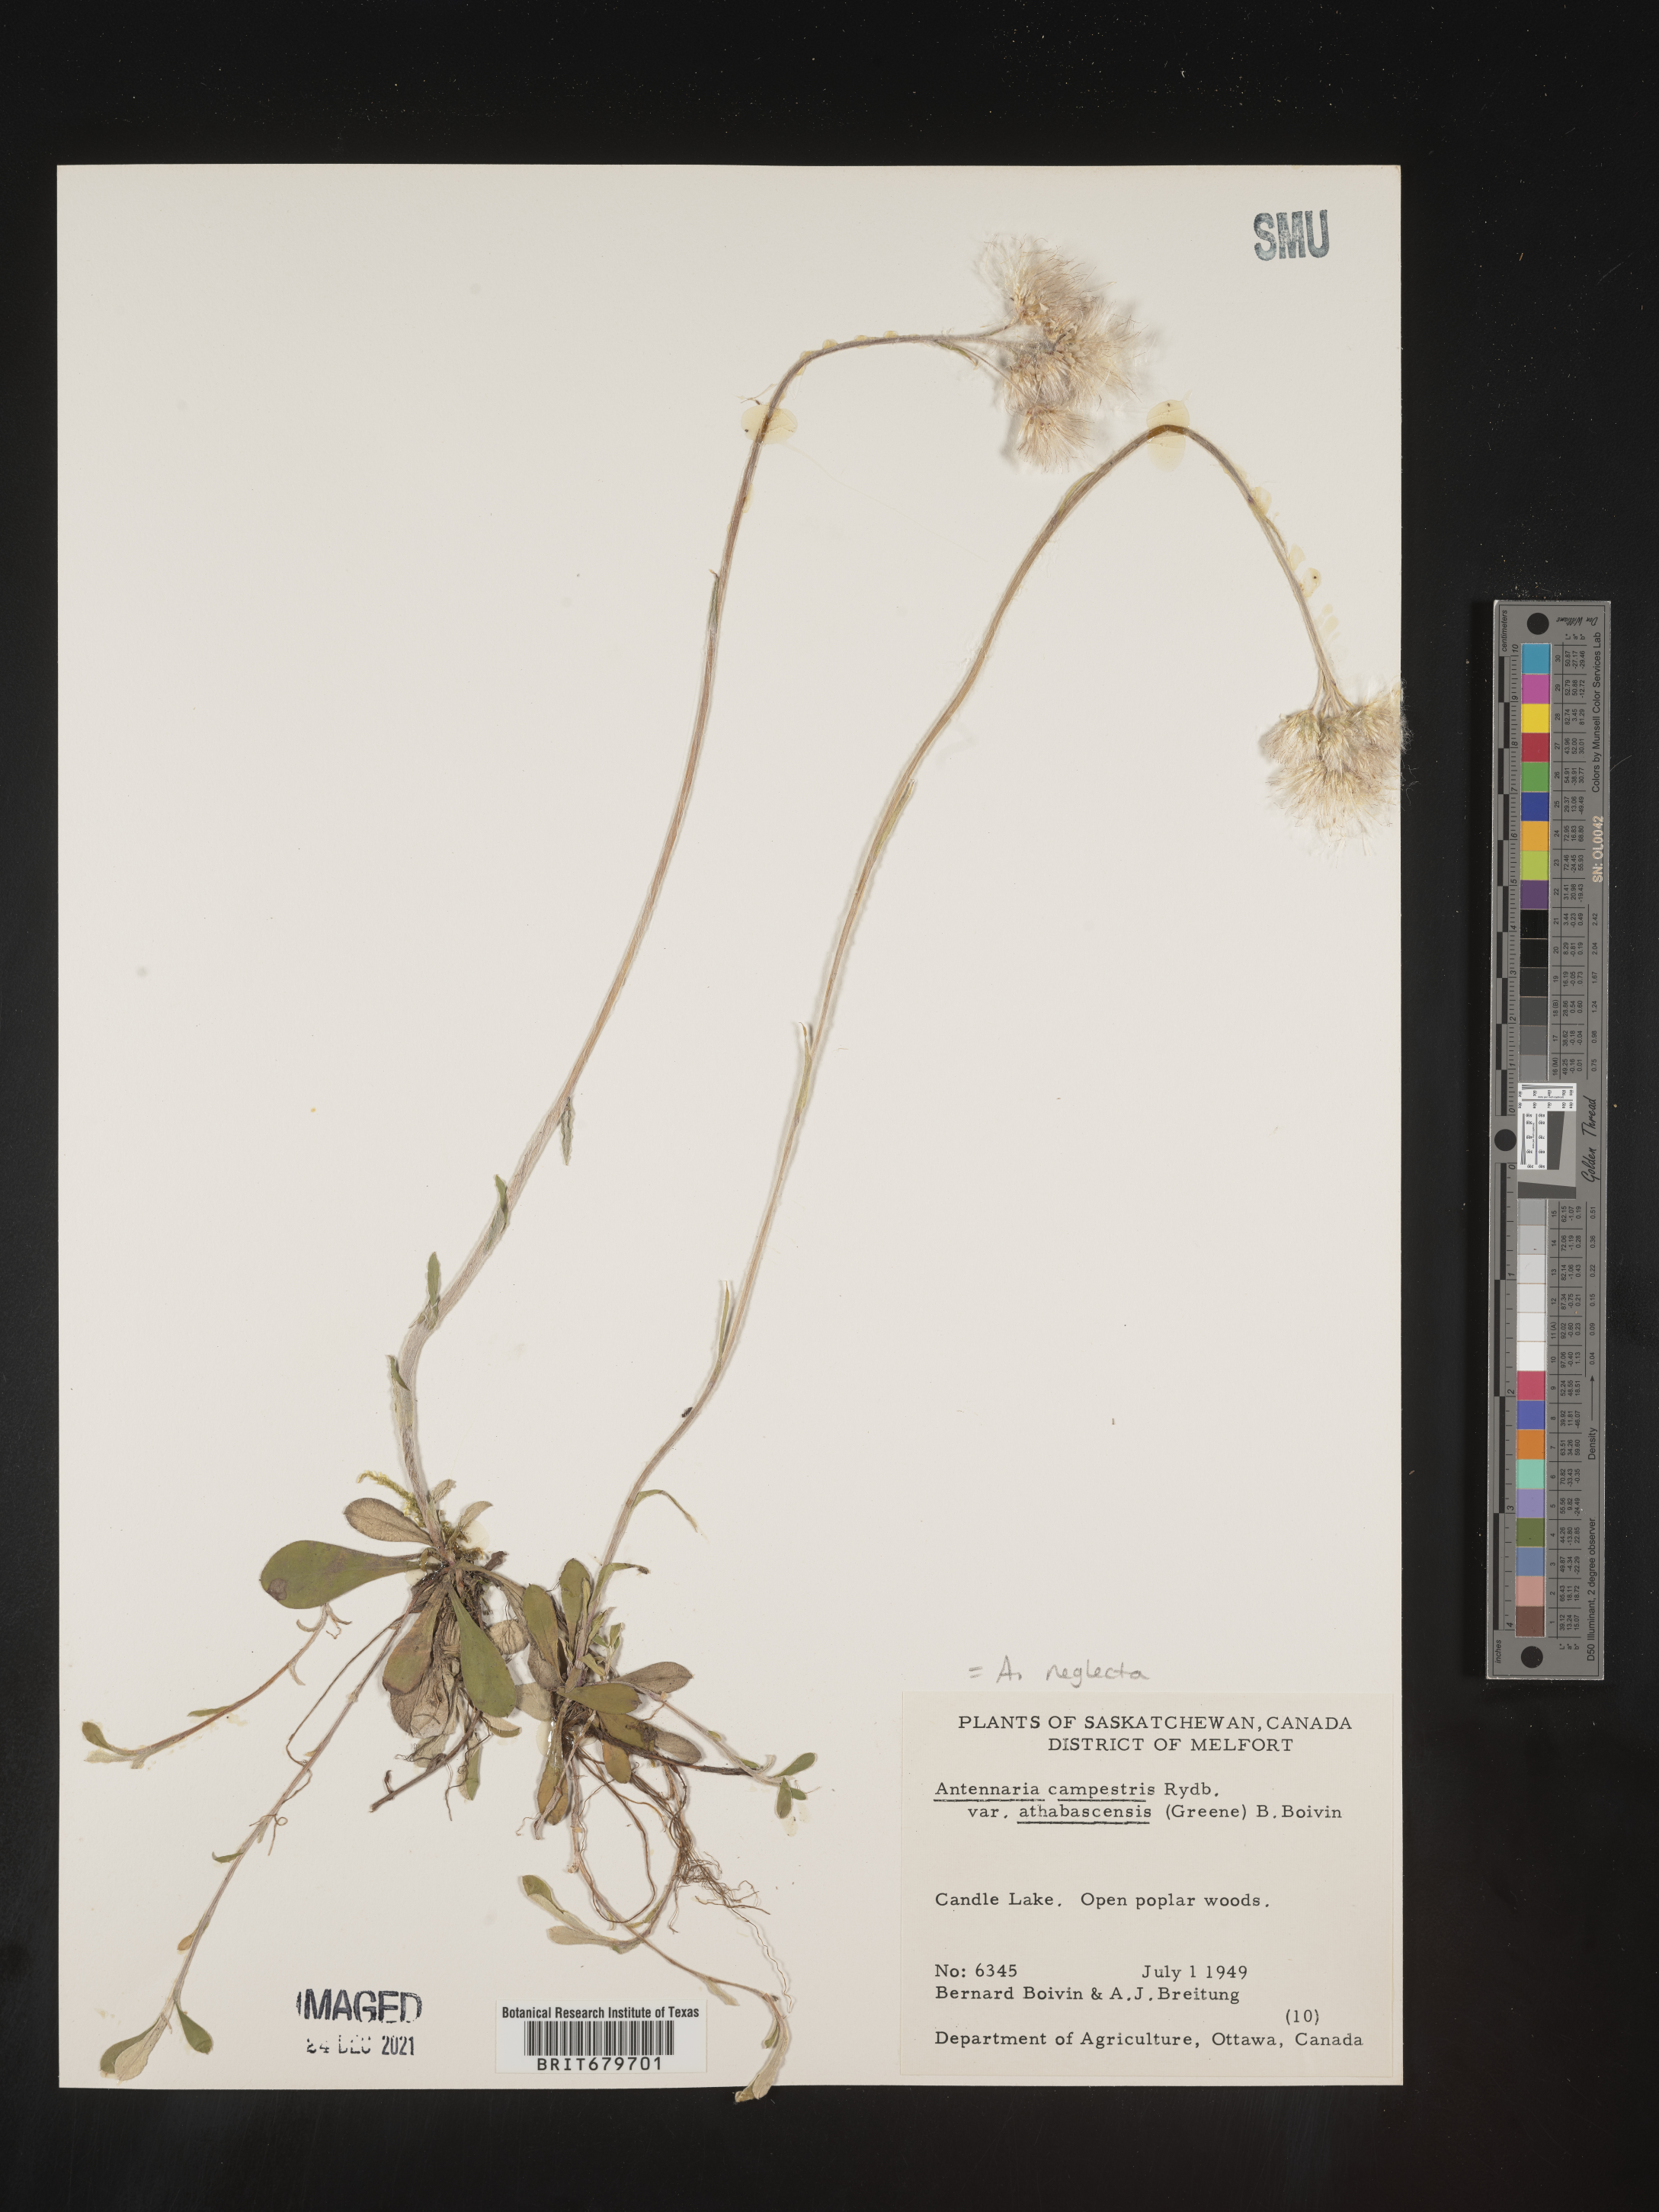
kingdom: Plantae
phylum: Tracheophyta
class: Magnoliopsida
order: Asterales
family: Asteraceae
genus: Antennaria
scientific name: Antennaria neglecta
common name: Field pussytoes
